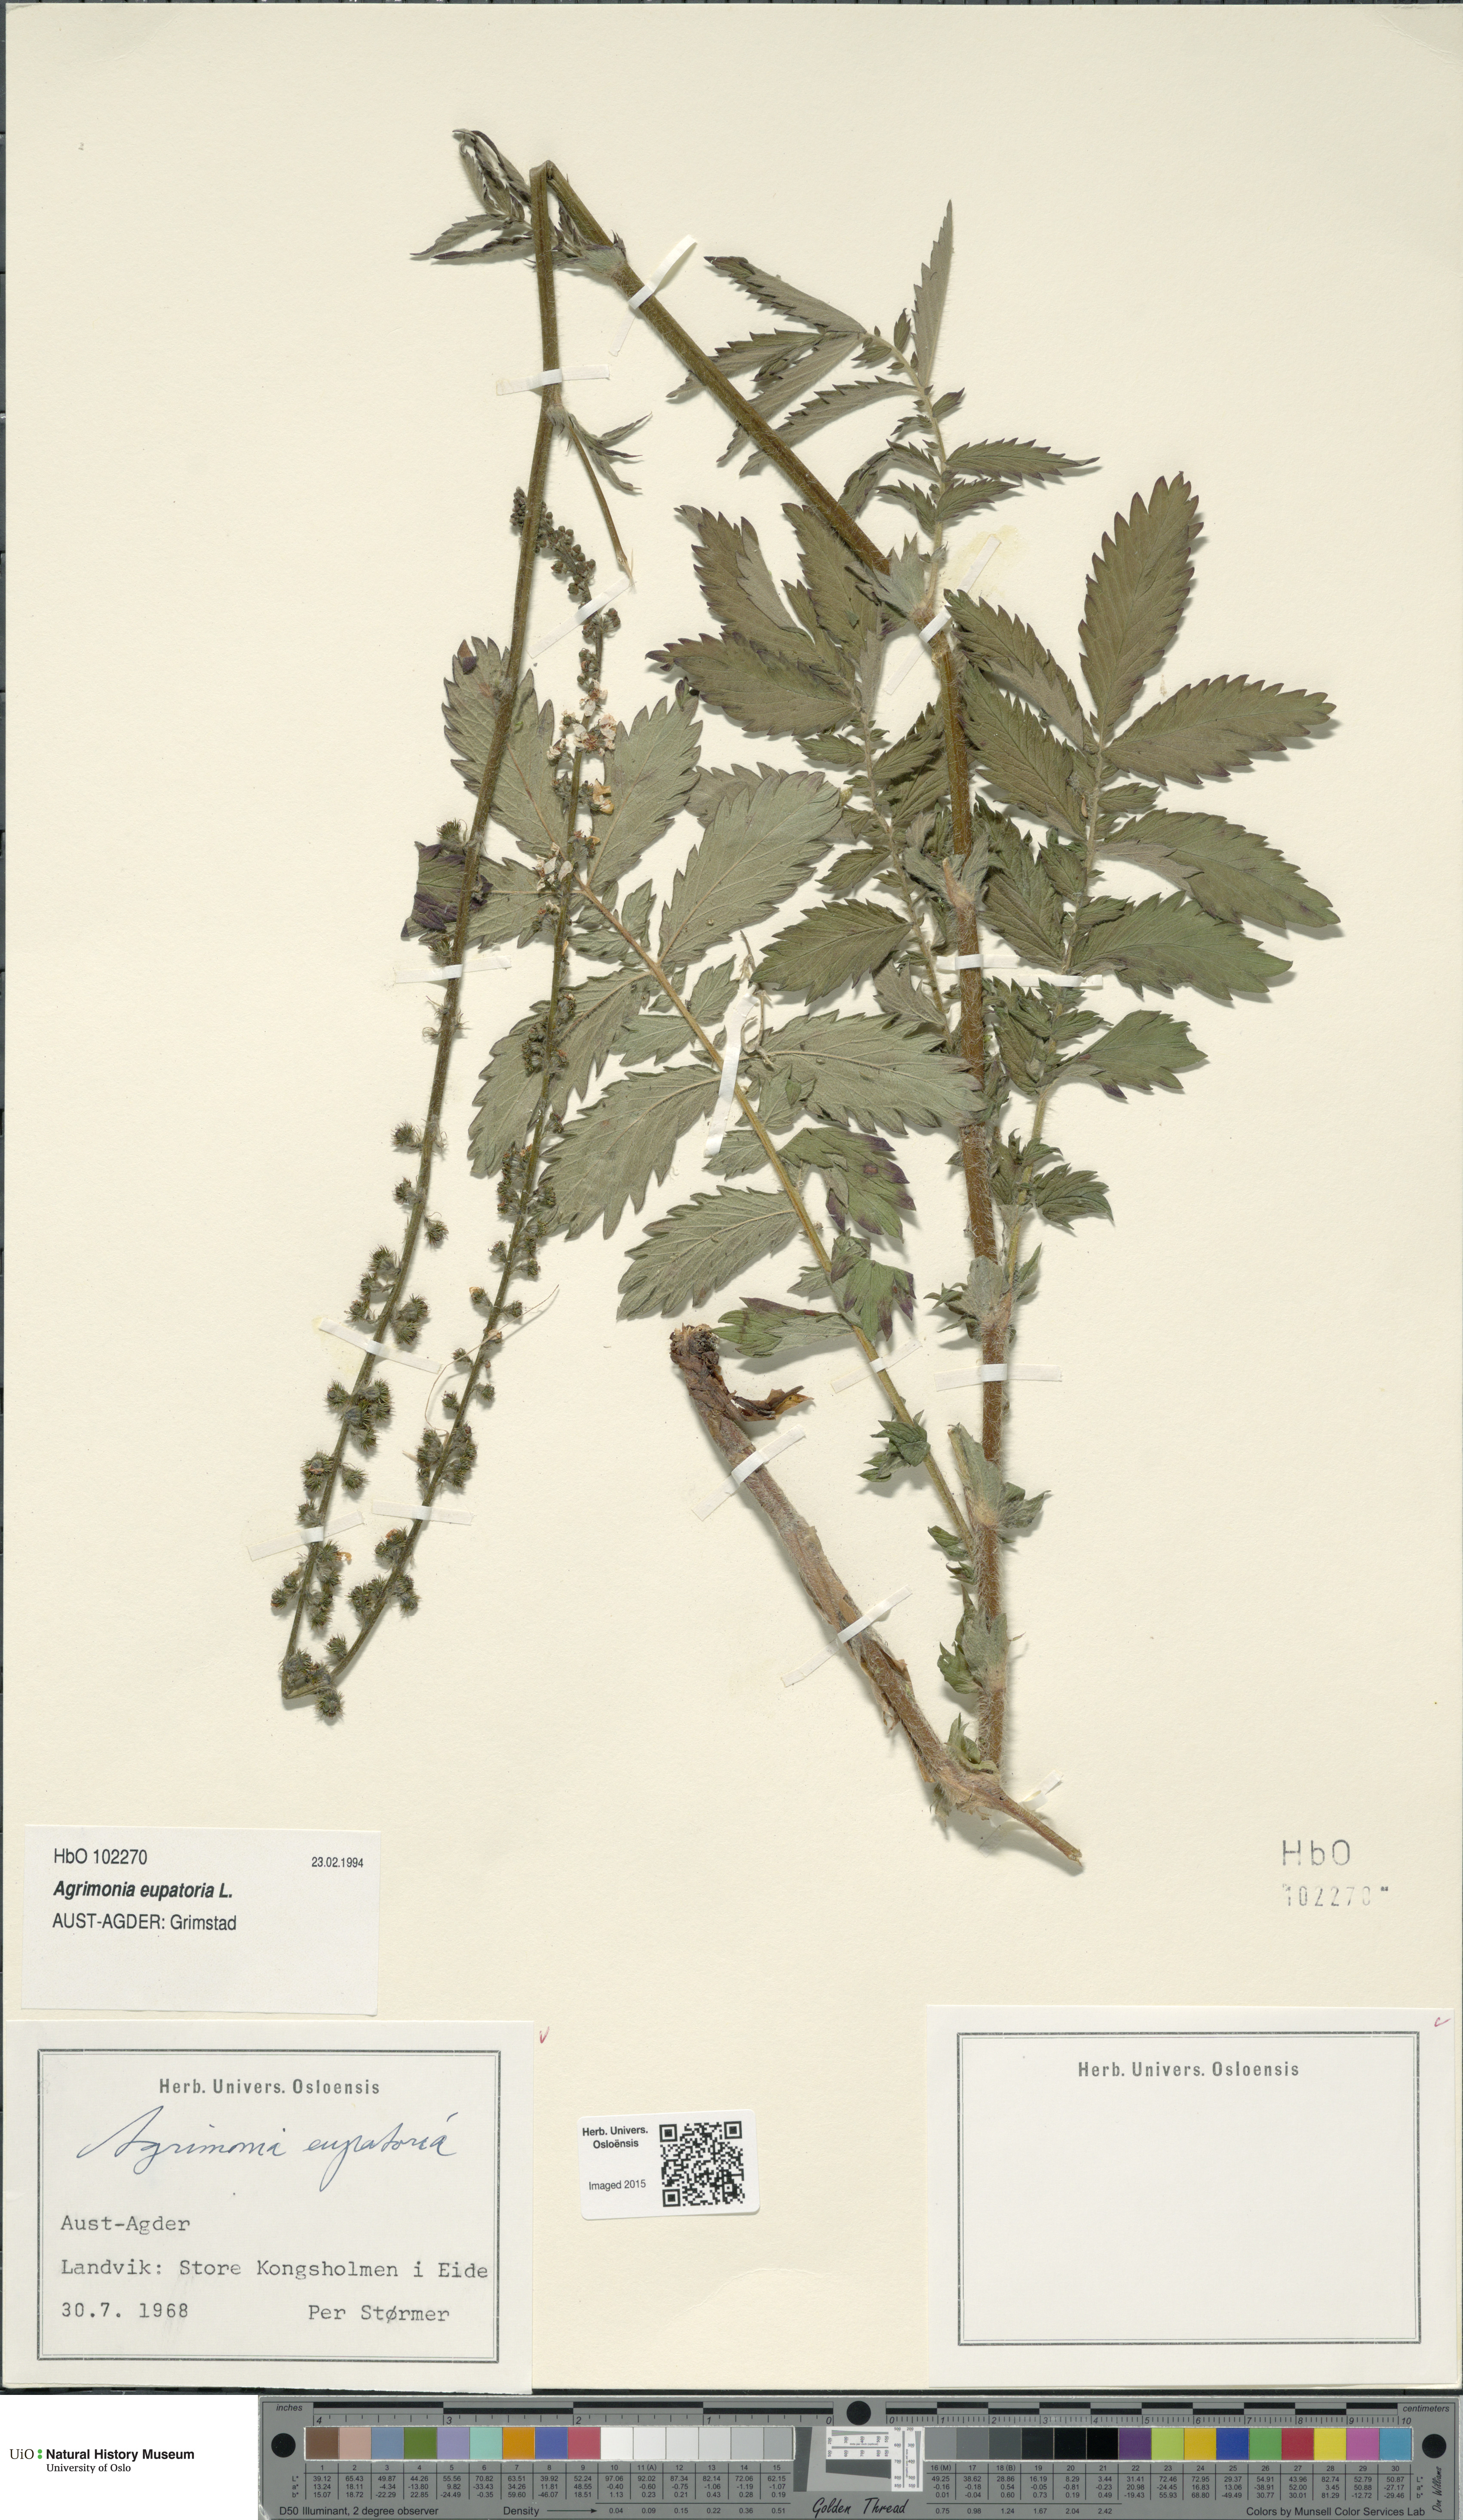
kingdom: Plantae
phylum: Tracheophyta
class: Magnoliopsida
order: Rosales
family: Rosaceae
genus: Agrimonia
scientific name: Agrimonia eupatoria
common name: Agrimony
